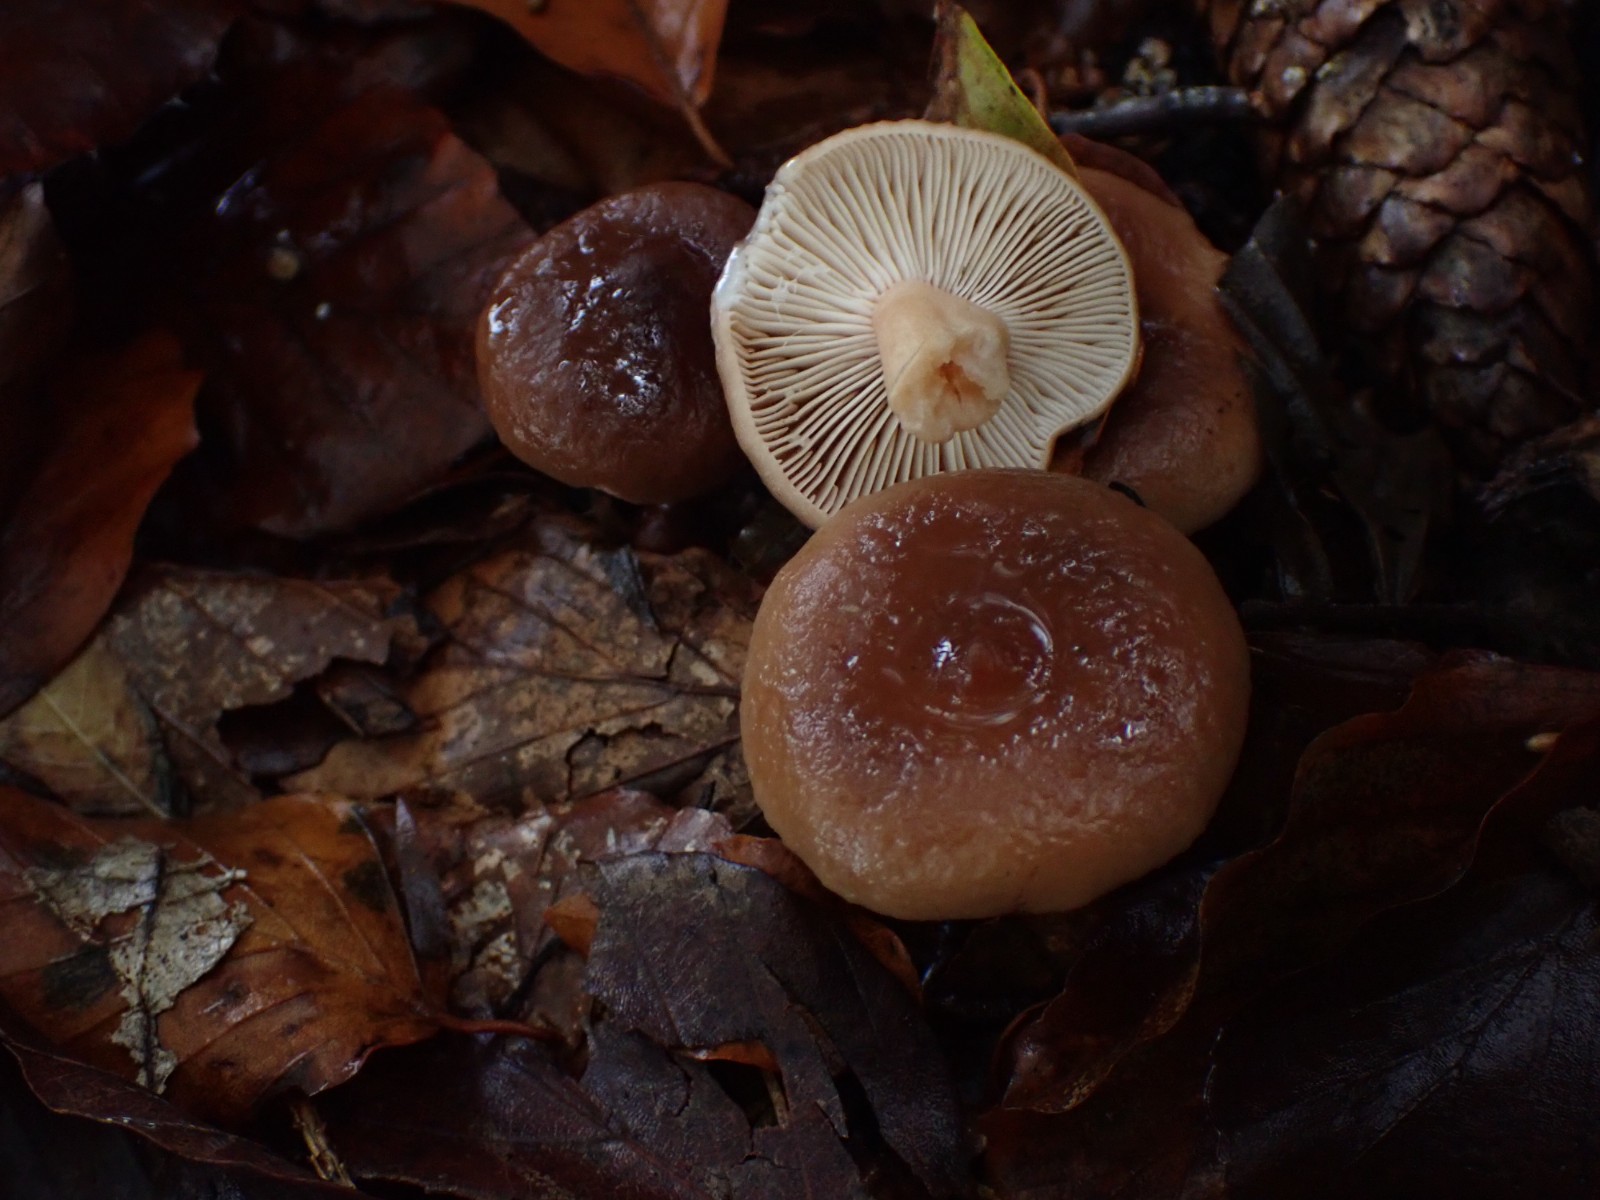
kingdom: Fungi
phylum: Basidiomycota
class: Agaricomycetes
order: Russulales
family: Russulaceae
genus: Lactarius
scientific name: Lactarius subdulcis
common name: sødlig mælkehat
